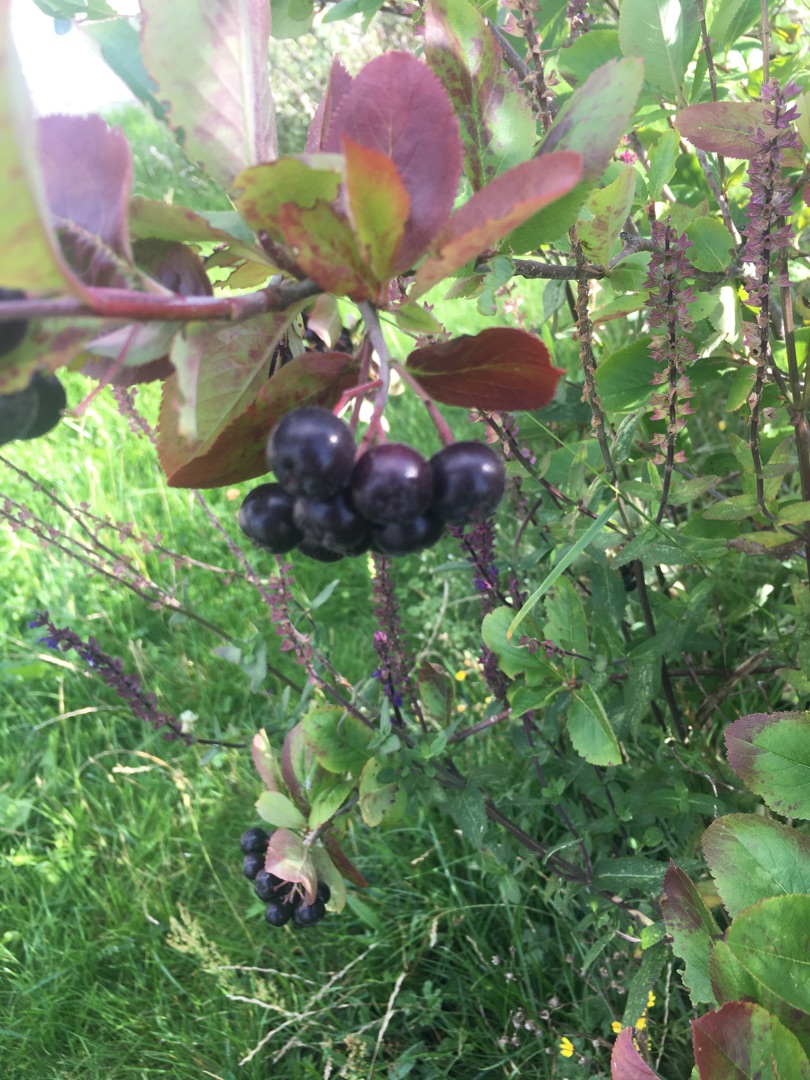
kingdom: Plantae
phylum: Tracheophyta
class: Magnoliopsida
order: Rosales
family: Rosaceae
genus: Aronia
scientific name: Aronia melanocarpa
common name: Sortfrugtet surbær
